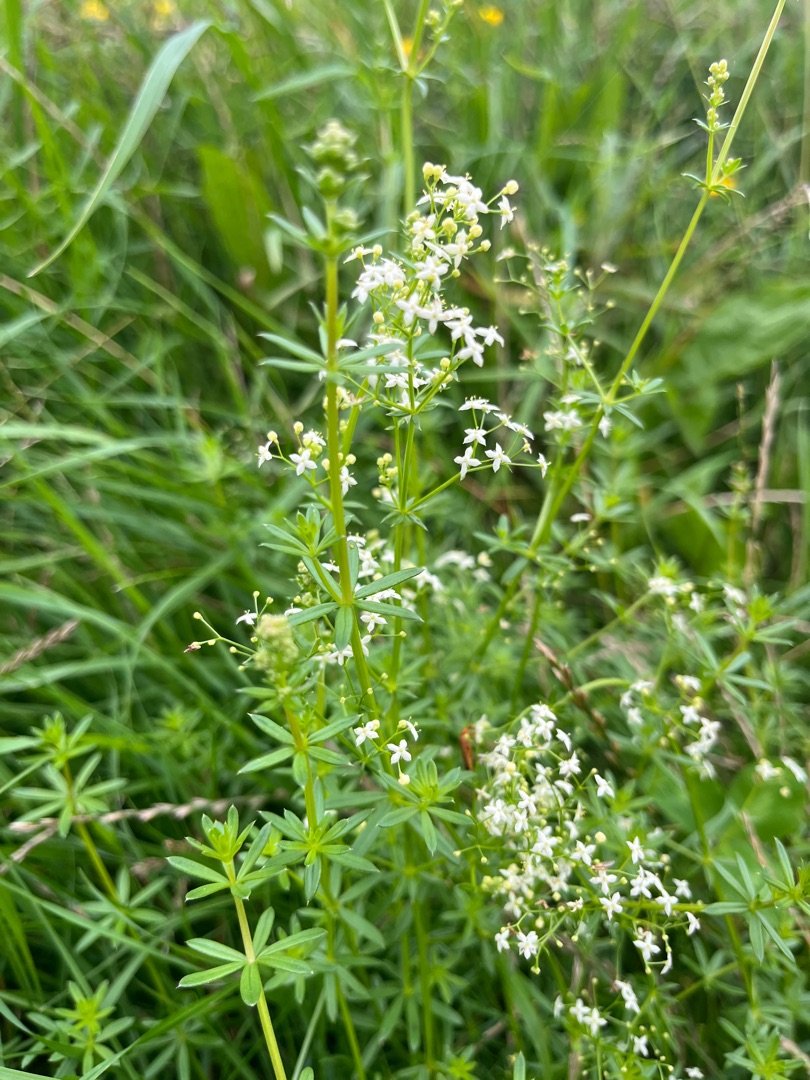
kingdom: Plantae
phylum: Tracheophyta
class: Magnoliopsida
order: Gentianales
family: Rubiaceae
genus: Galium
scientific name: Galium mollugo
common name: Hvid snerre
